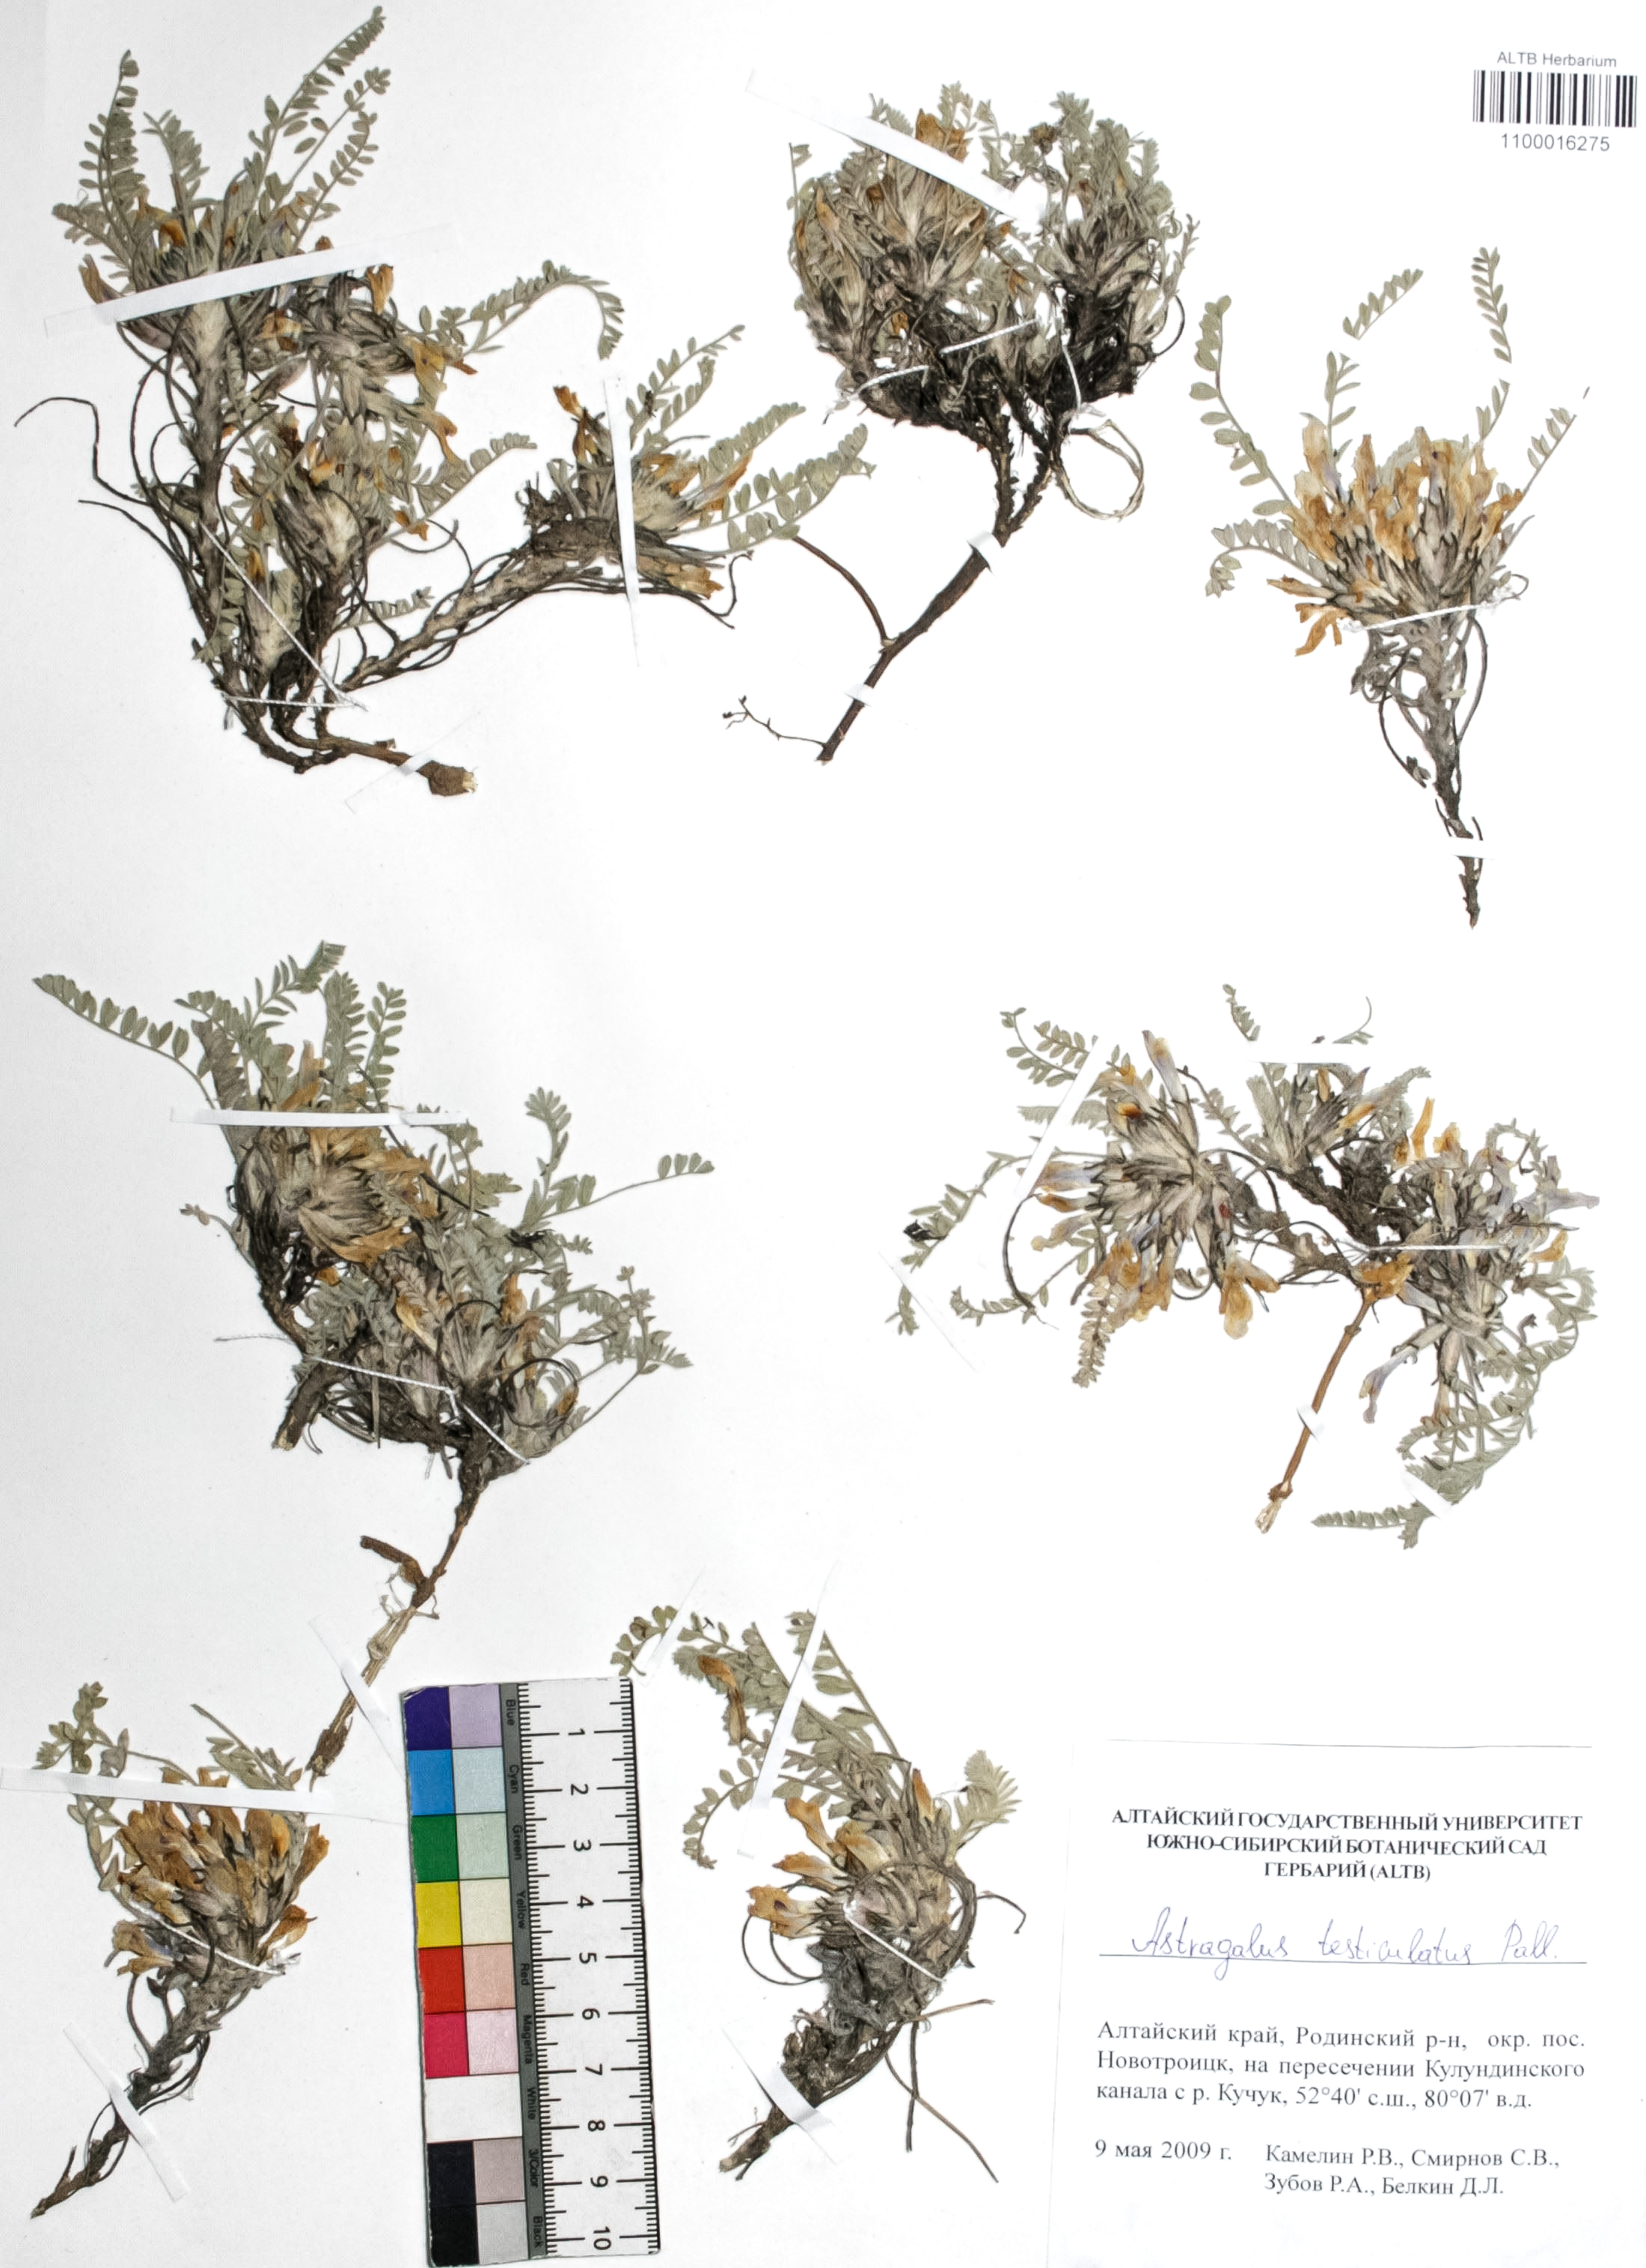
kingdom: Plantae
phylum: Tracheophyta
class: Magnoliopsida
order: Fabales
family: Fabaceae
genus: Astragalus
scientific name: Astragalus testiculatus
